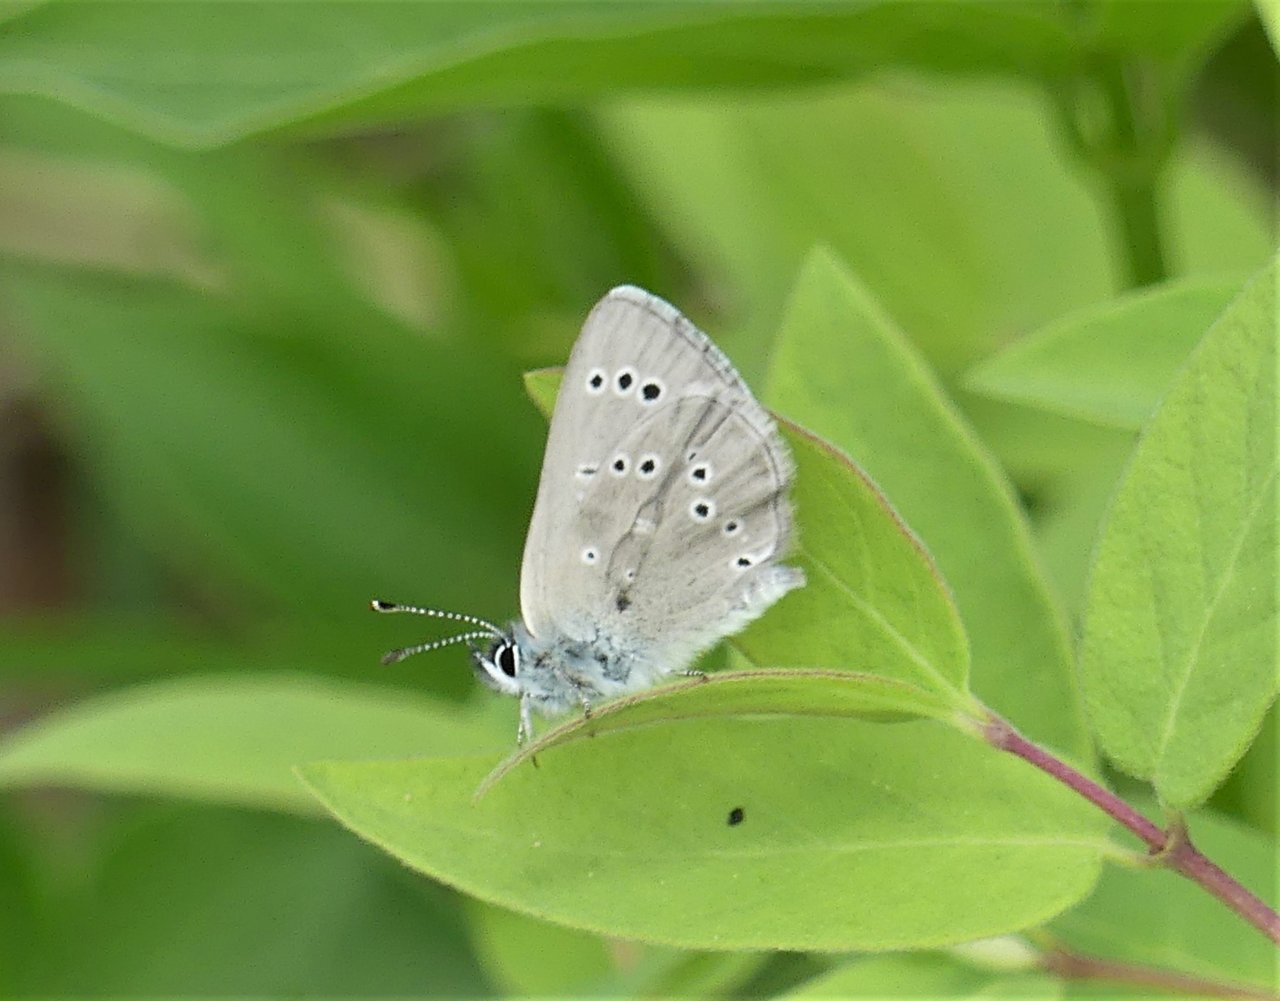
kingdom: Animalia
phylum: Arthropoda
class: Insecta
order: Lepidoptera
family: Lycaenidae
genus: Glaucopsyche
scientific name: Glaucopsyche lygdamus
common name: Silvery Blue
